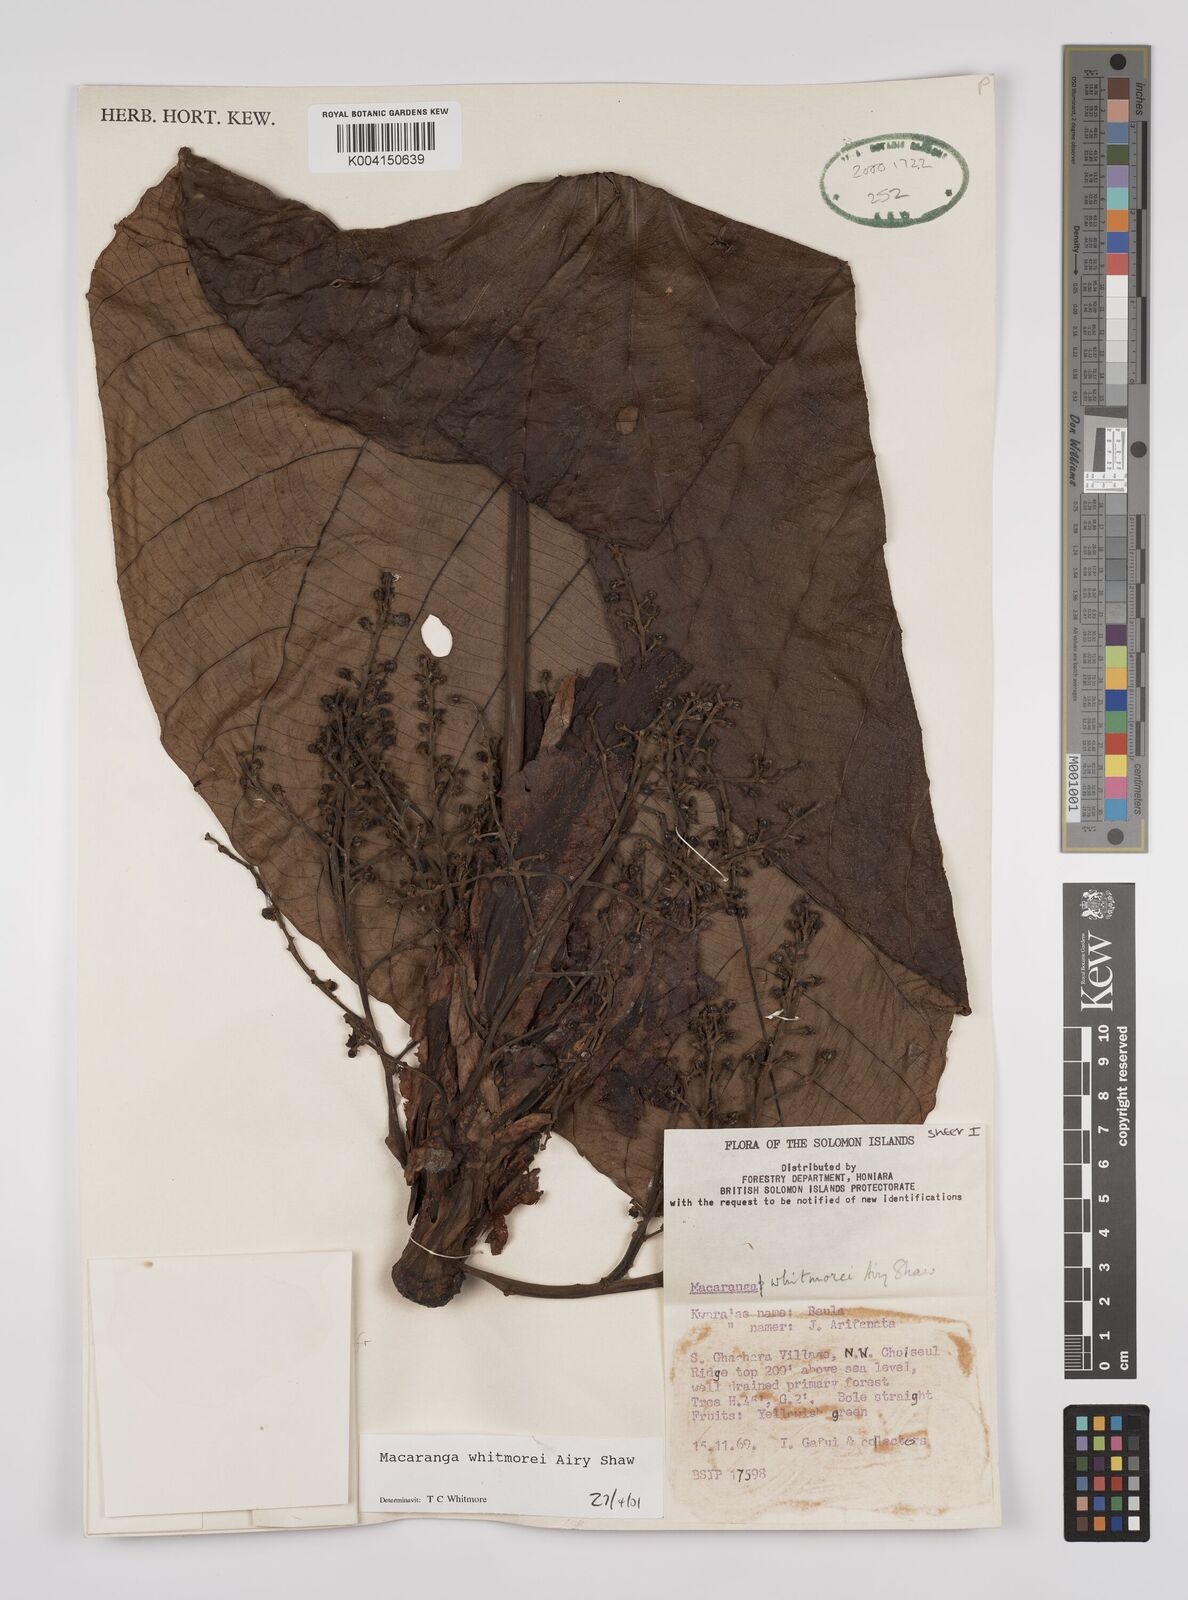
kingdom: Plantae
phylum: Tracheophyta
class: Magnoliopsida
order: Malpighiales
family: Euphorbiaceae
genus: Macaranga
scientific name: Macaranga whitmorei
